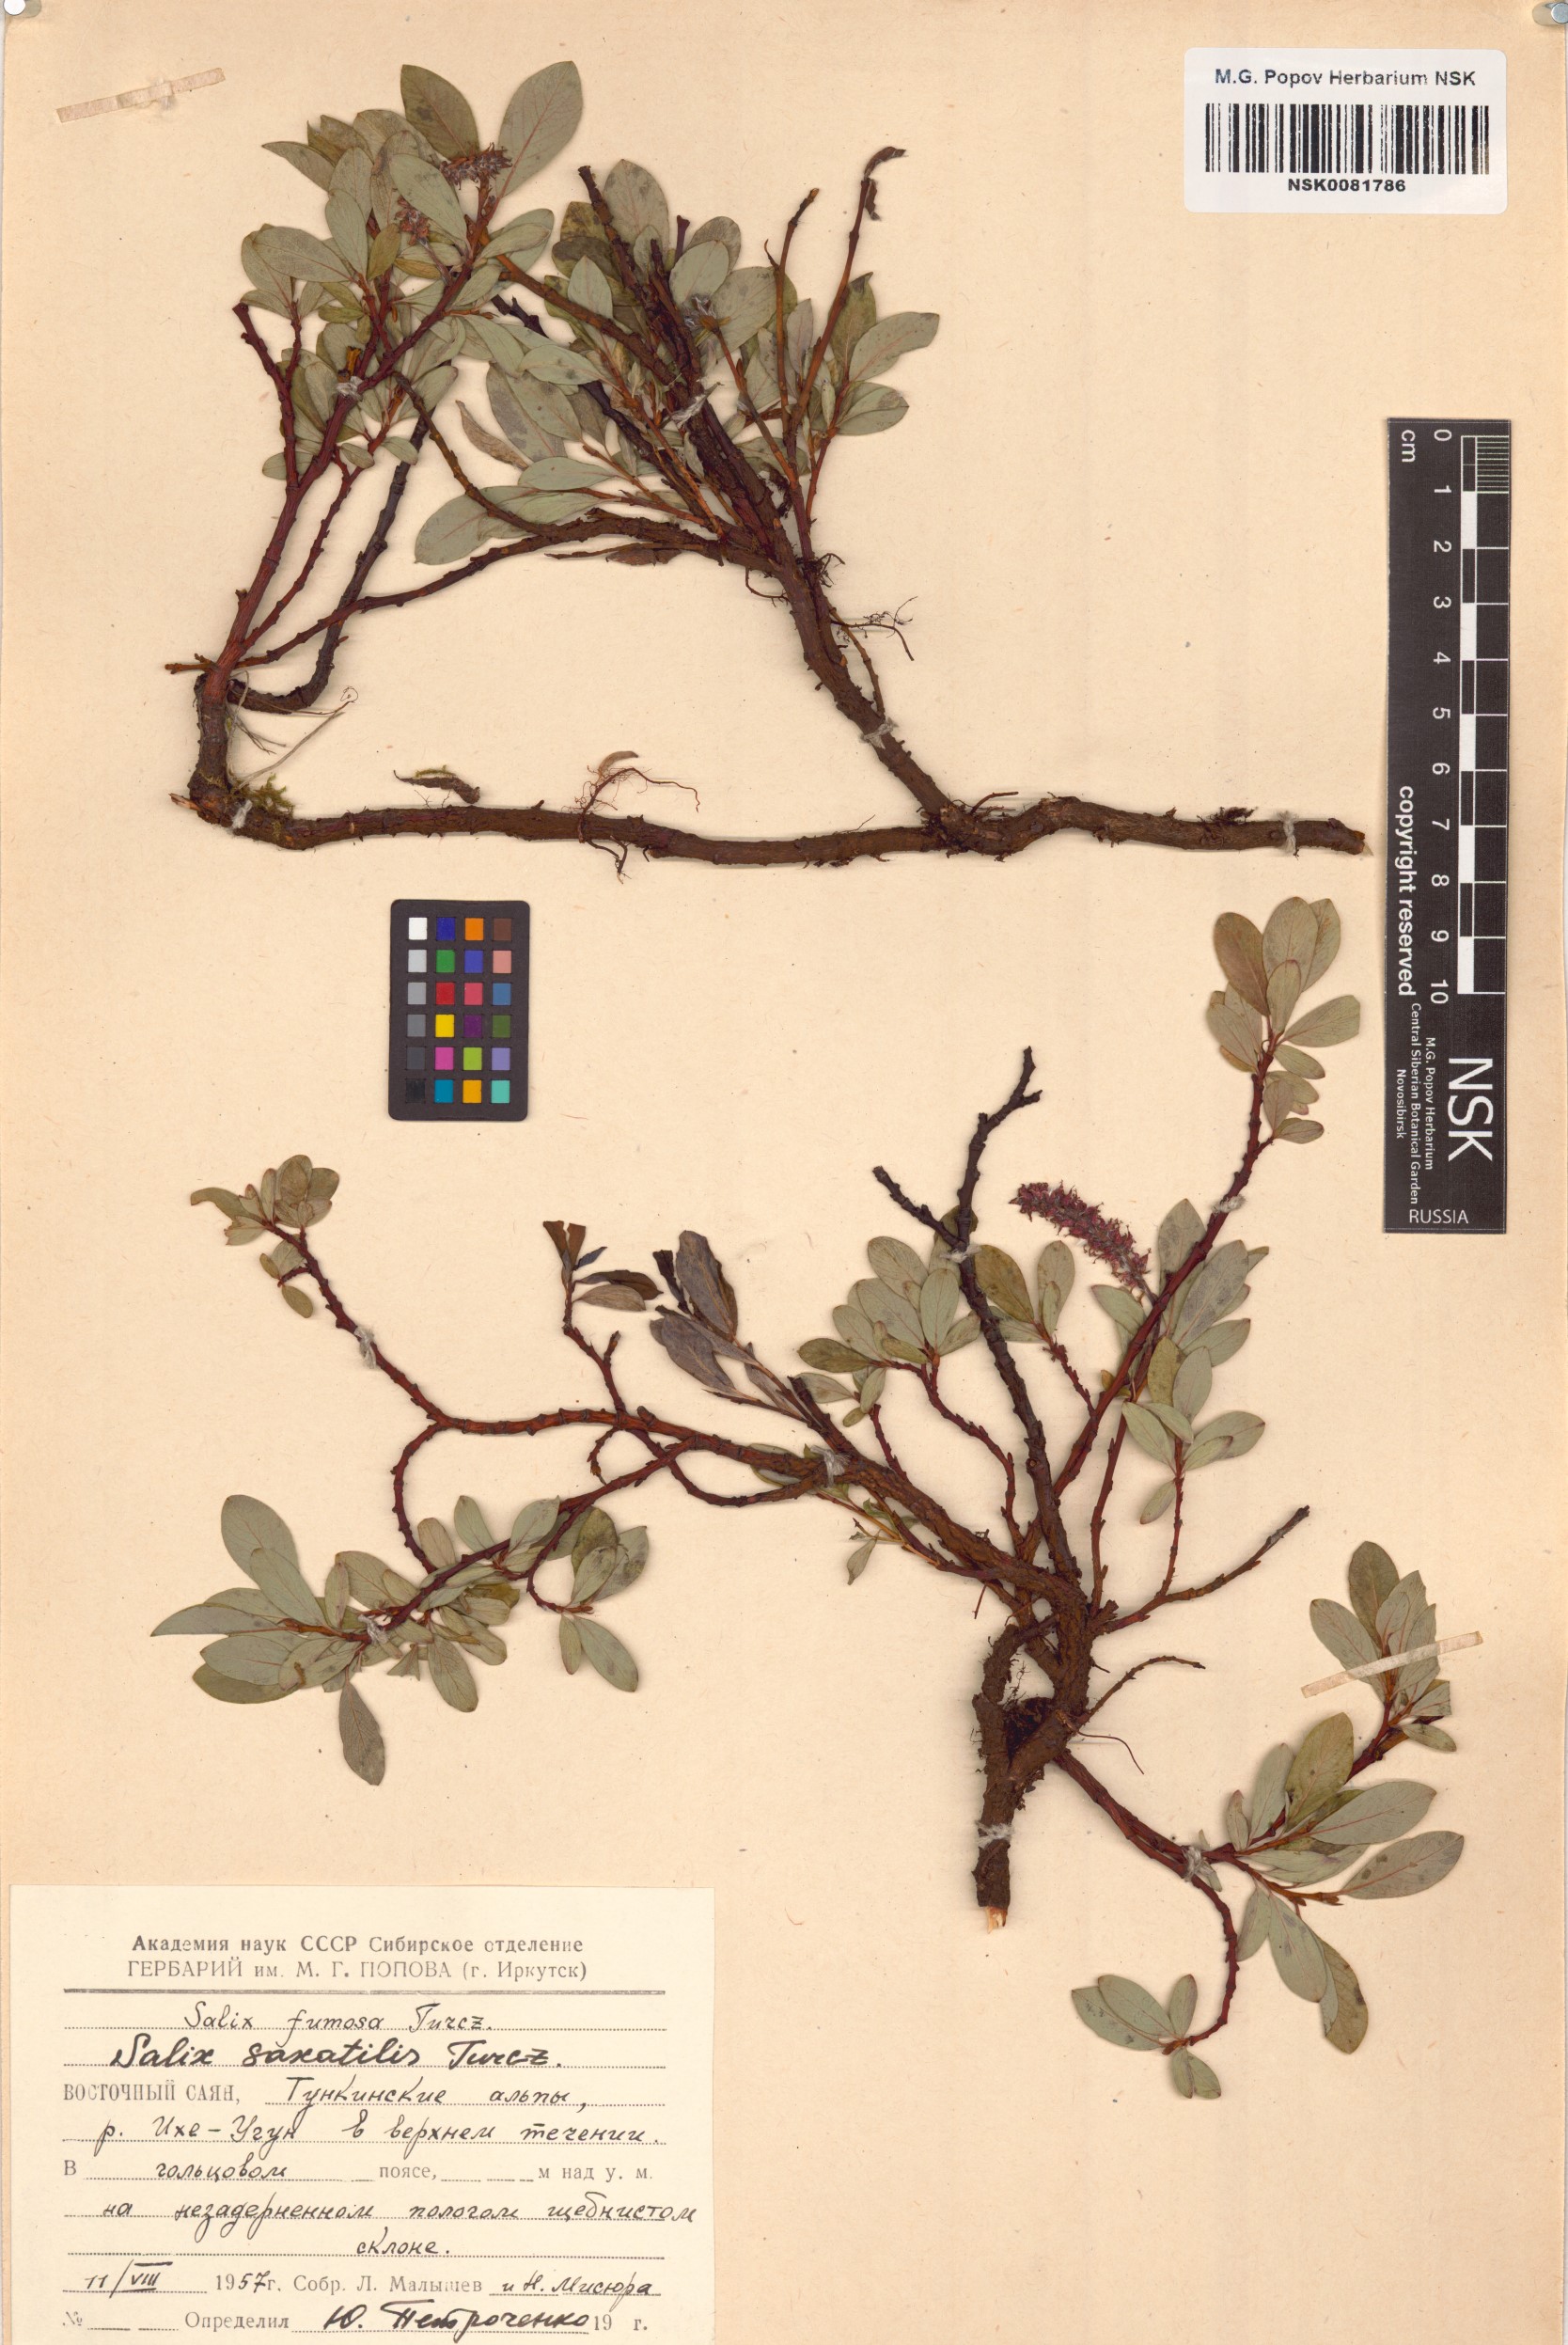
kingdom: Plantae
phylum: Tracheophyta
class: Magnoliopsida
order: Malpighiales
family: Salicaceae
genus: Salix
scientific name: Salix saxatilis
